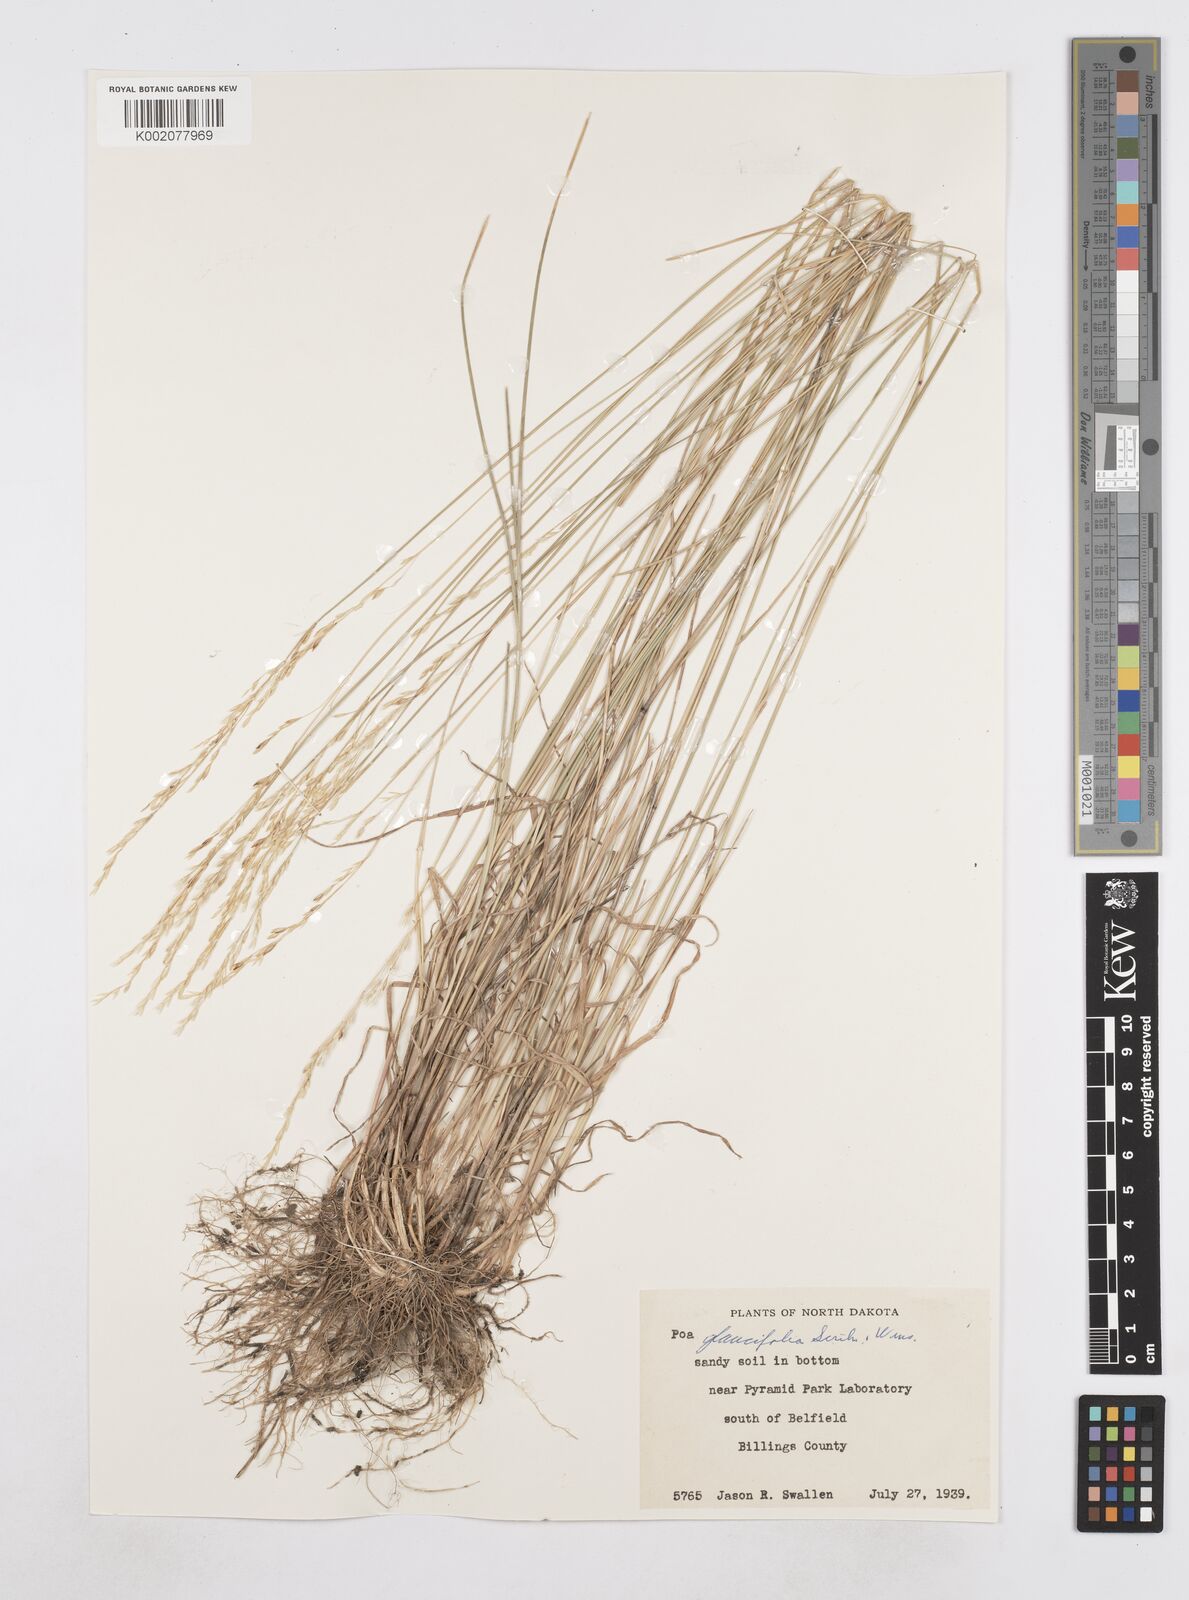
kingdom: Plantae
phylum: Tracheophyta
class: Liliopsida
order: Poales
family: Poaceae
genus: Poa
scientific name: Poa arida
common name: Plains bluegrass
